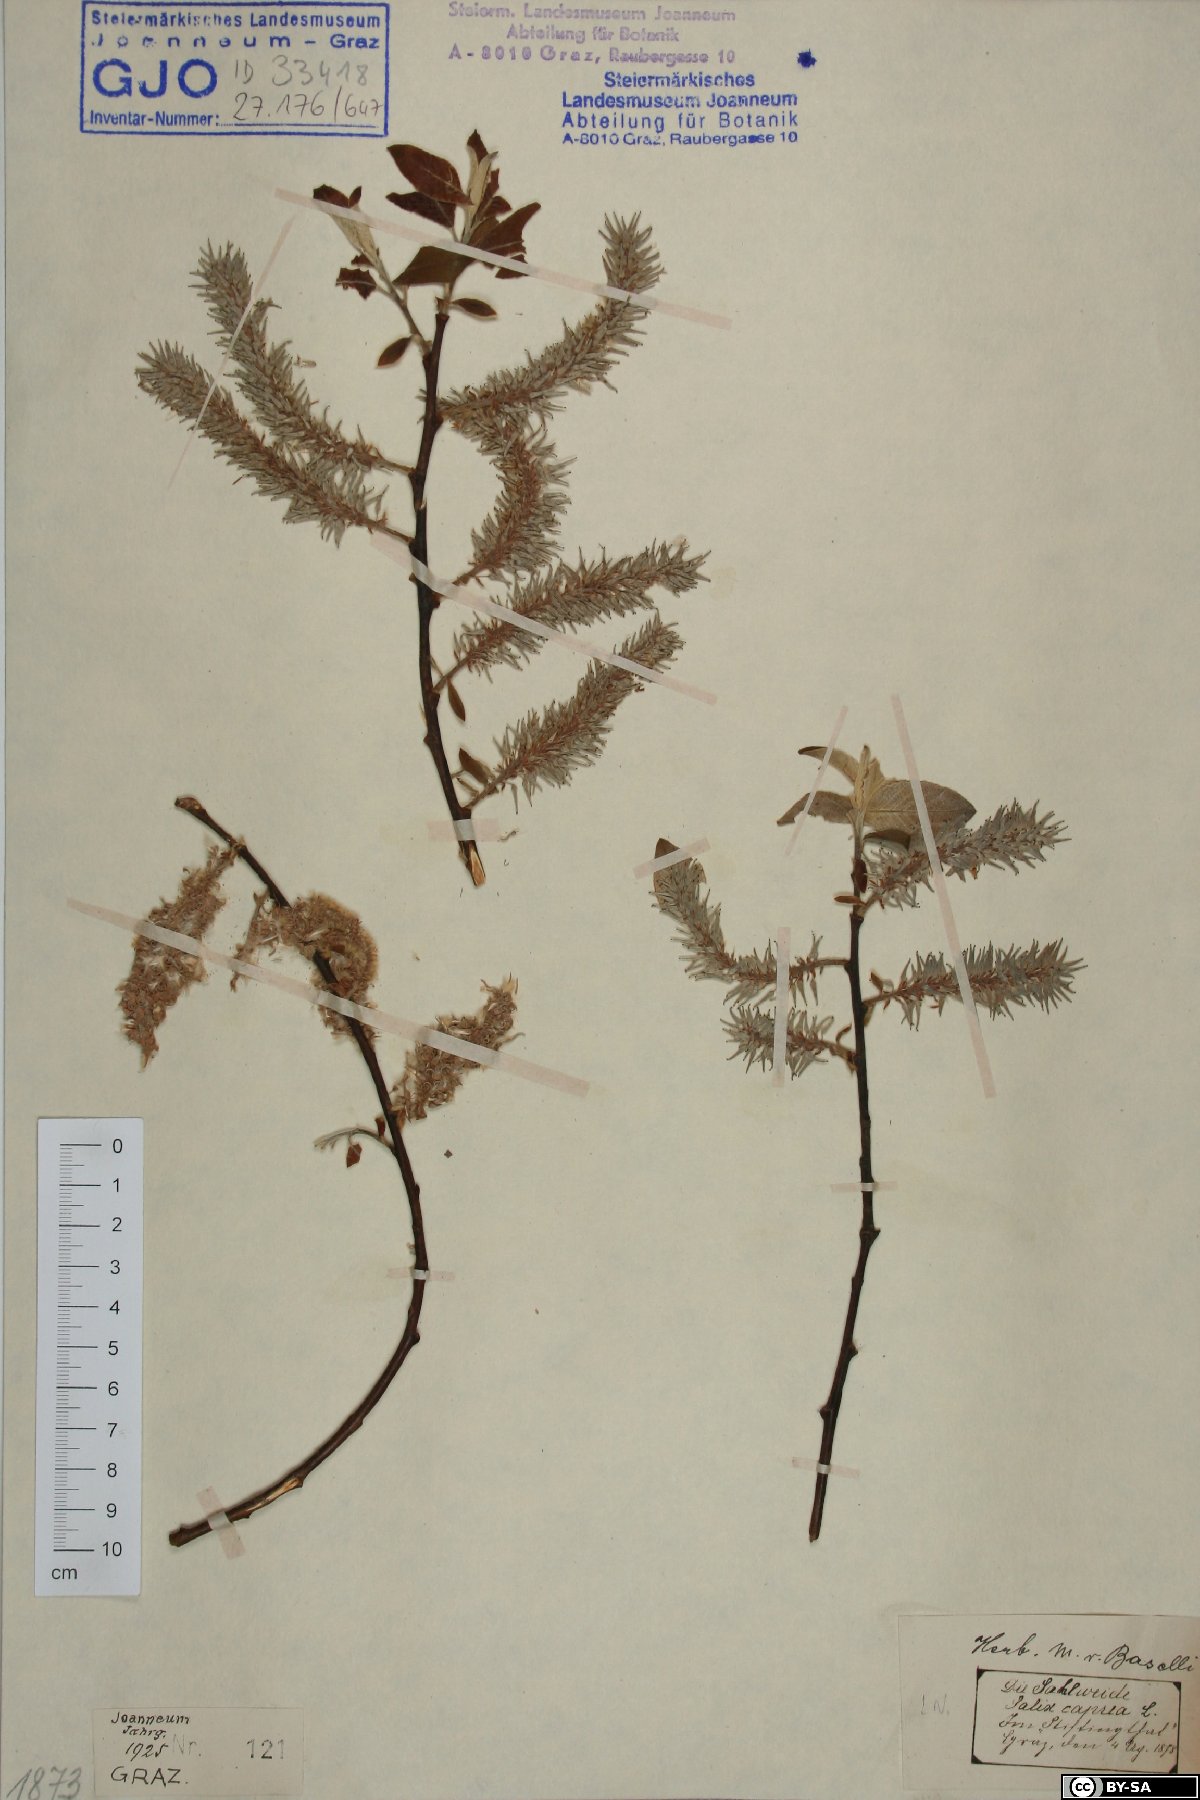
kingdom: Plantae
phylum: Tracheophyta
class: Magnoliopsida
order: Malpighiales
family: Salicaceae
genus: Salix
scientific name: Salix caprea
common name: Goat willow
